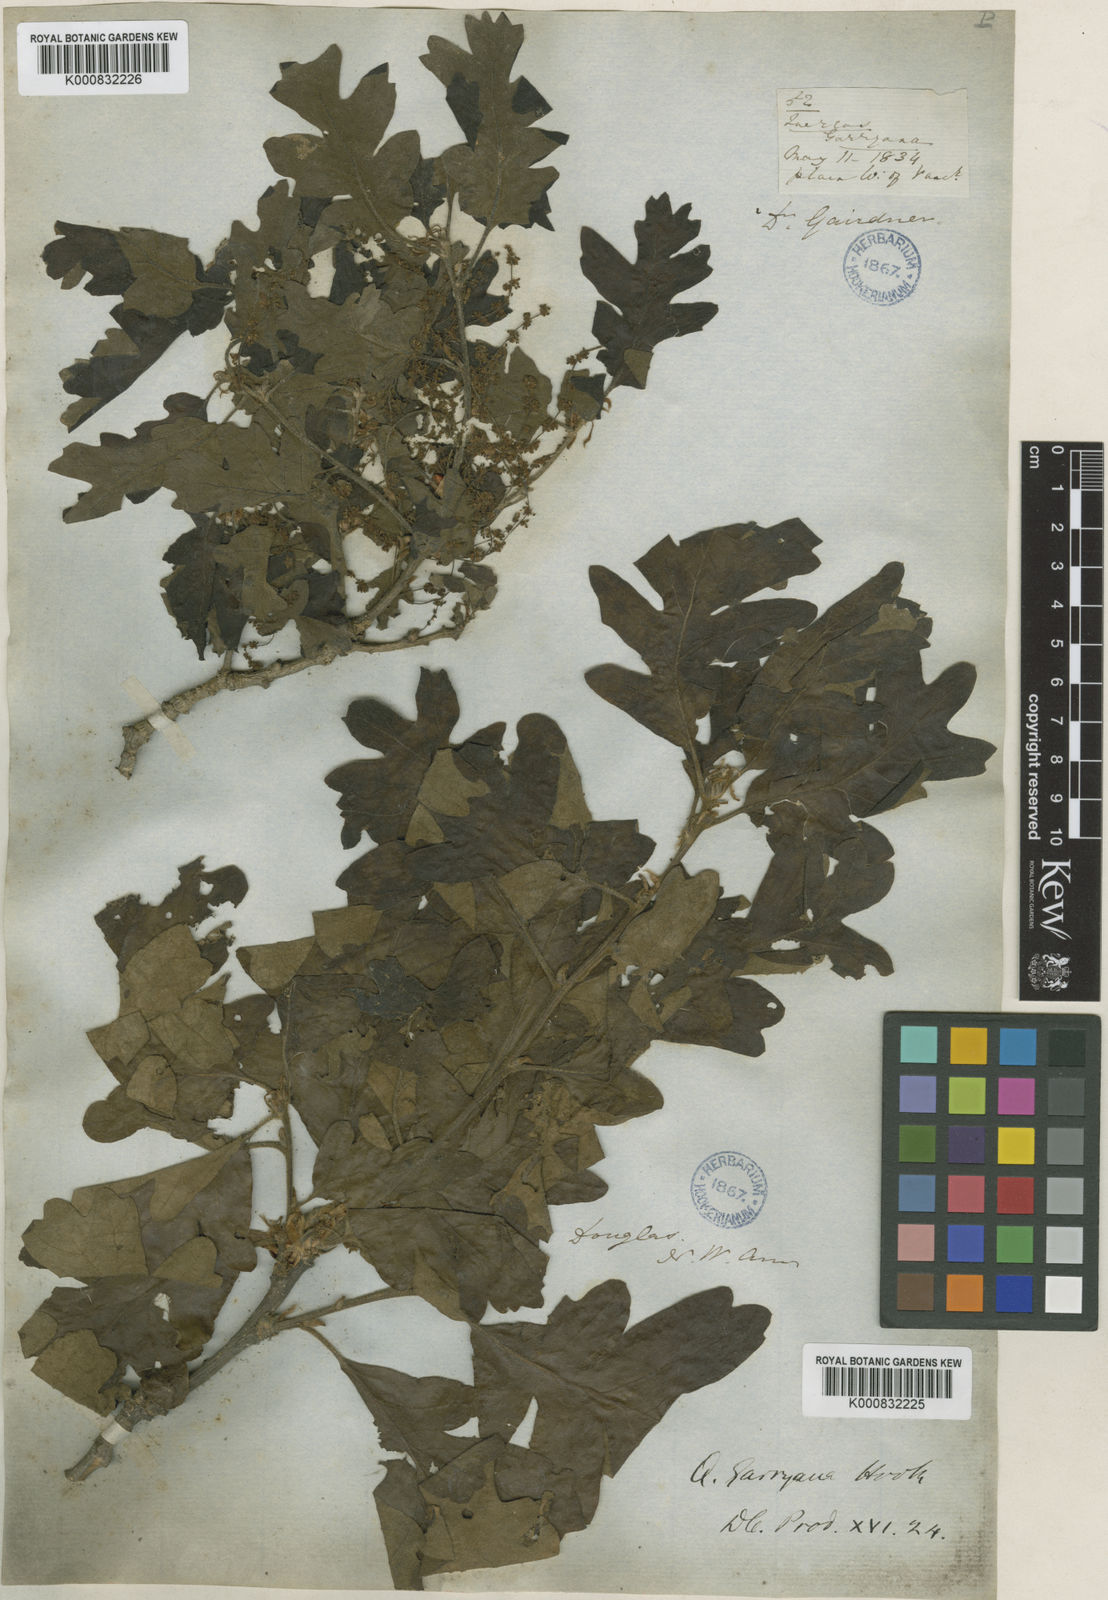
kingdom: Plantae
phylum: Tracheophyta
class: Magnoliopsida
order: Fagales
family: Fagaceae
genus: Quercus
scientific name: Quercus garryana
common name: Garry oak
